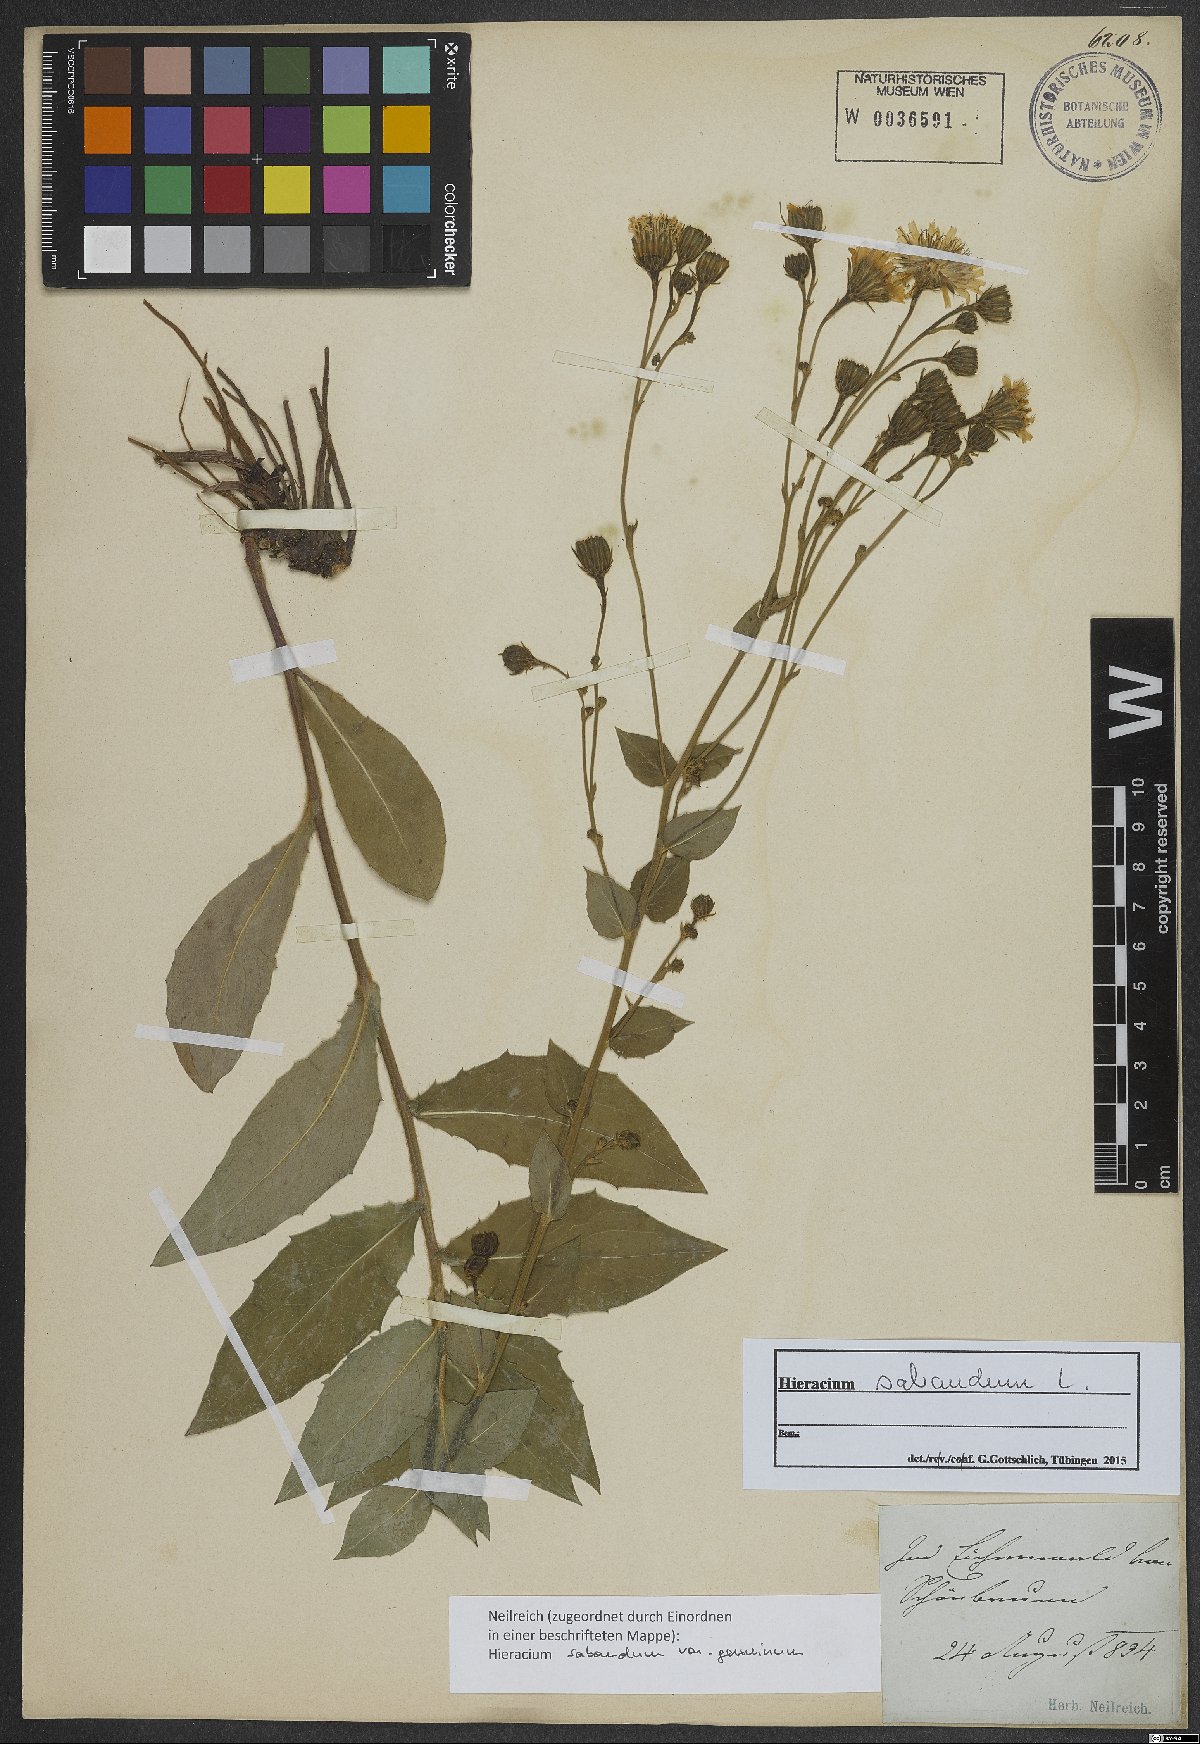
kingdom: Plantae
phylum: Tracheophyta
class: Magnoliopsida
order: Asterales
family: Asteraceae
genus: Hieracium
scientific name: Hieracium sabaudum
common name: New england hawkweed
